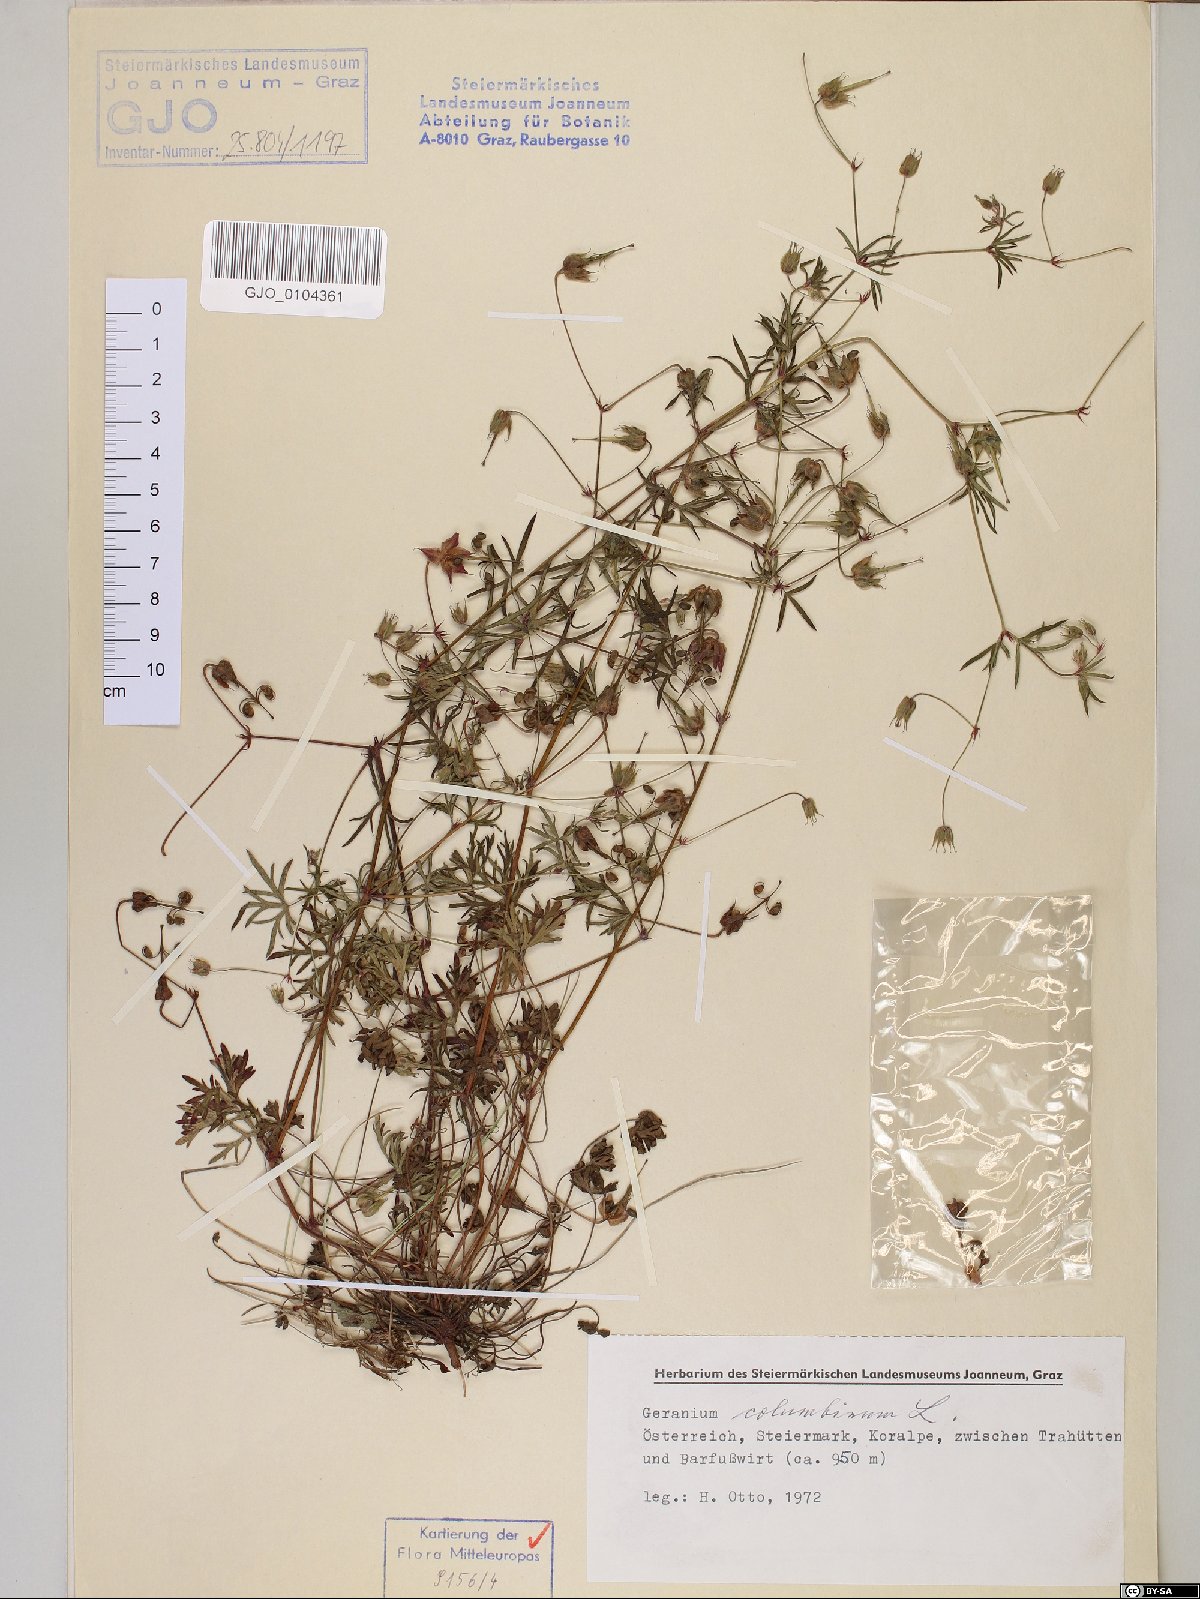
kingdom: Plantae
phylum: Tracheophyta
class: Magnoliopsida
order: Geraniales
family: Geraniaceae
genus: Geranium
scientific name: Geranium columbinum
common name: Long-stalked crane's-bill
